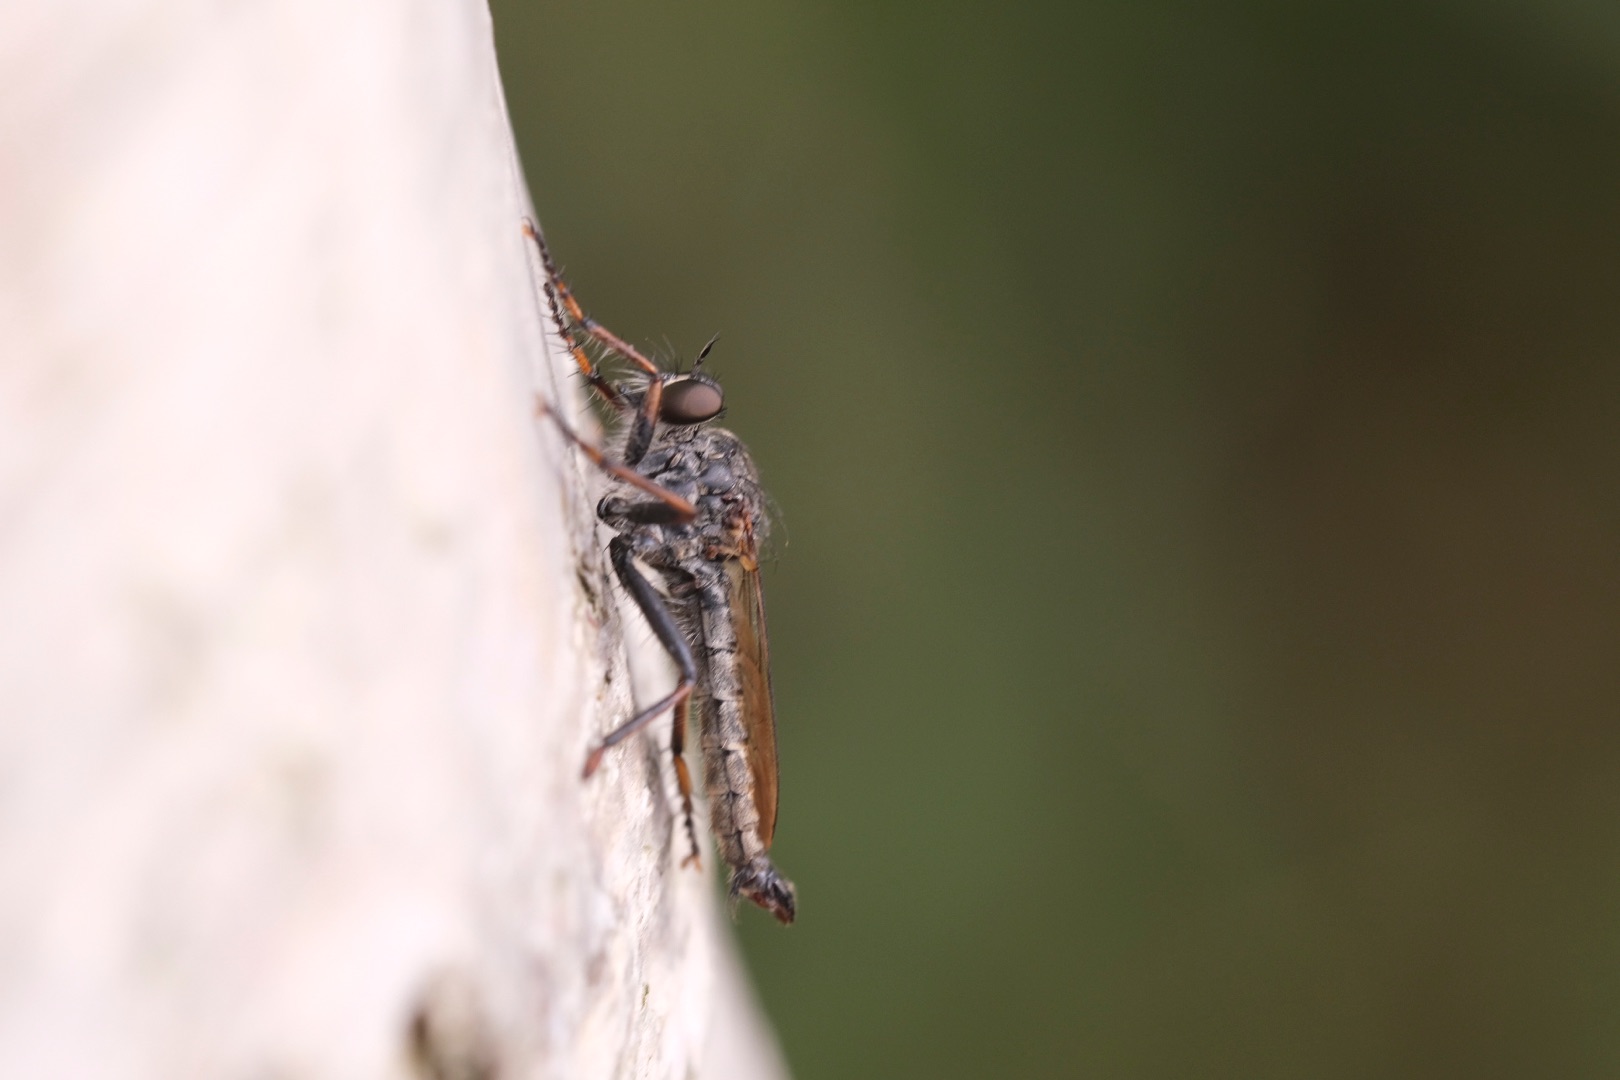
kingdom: Animalia
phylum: Arthropoda
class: Insecta
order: Diptera
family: Asilidae
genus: Machimus
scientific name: Machimus atricapillus
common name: Sort hårrovflue
